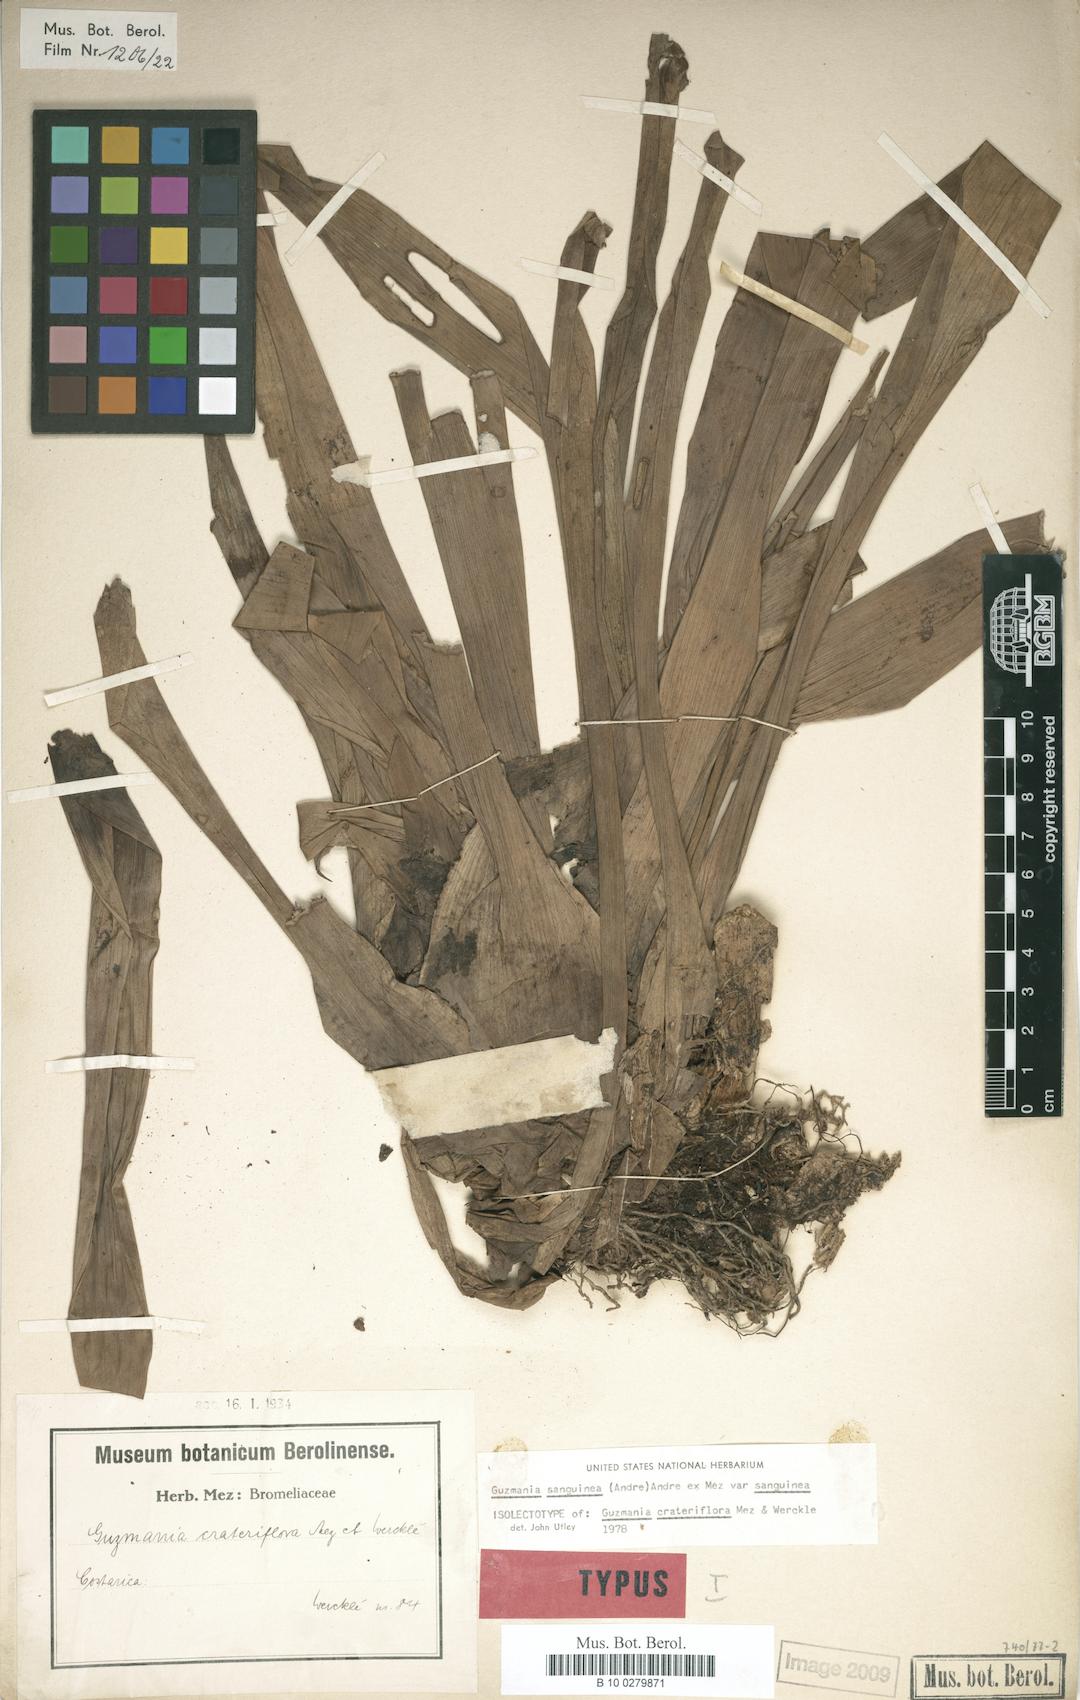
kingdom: Plantae
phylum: Tracheophyta
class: Liliopsida
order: Poales
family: Bromeliaceae
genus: Guzmania
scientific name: Guzmania sanguinea
